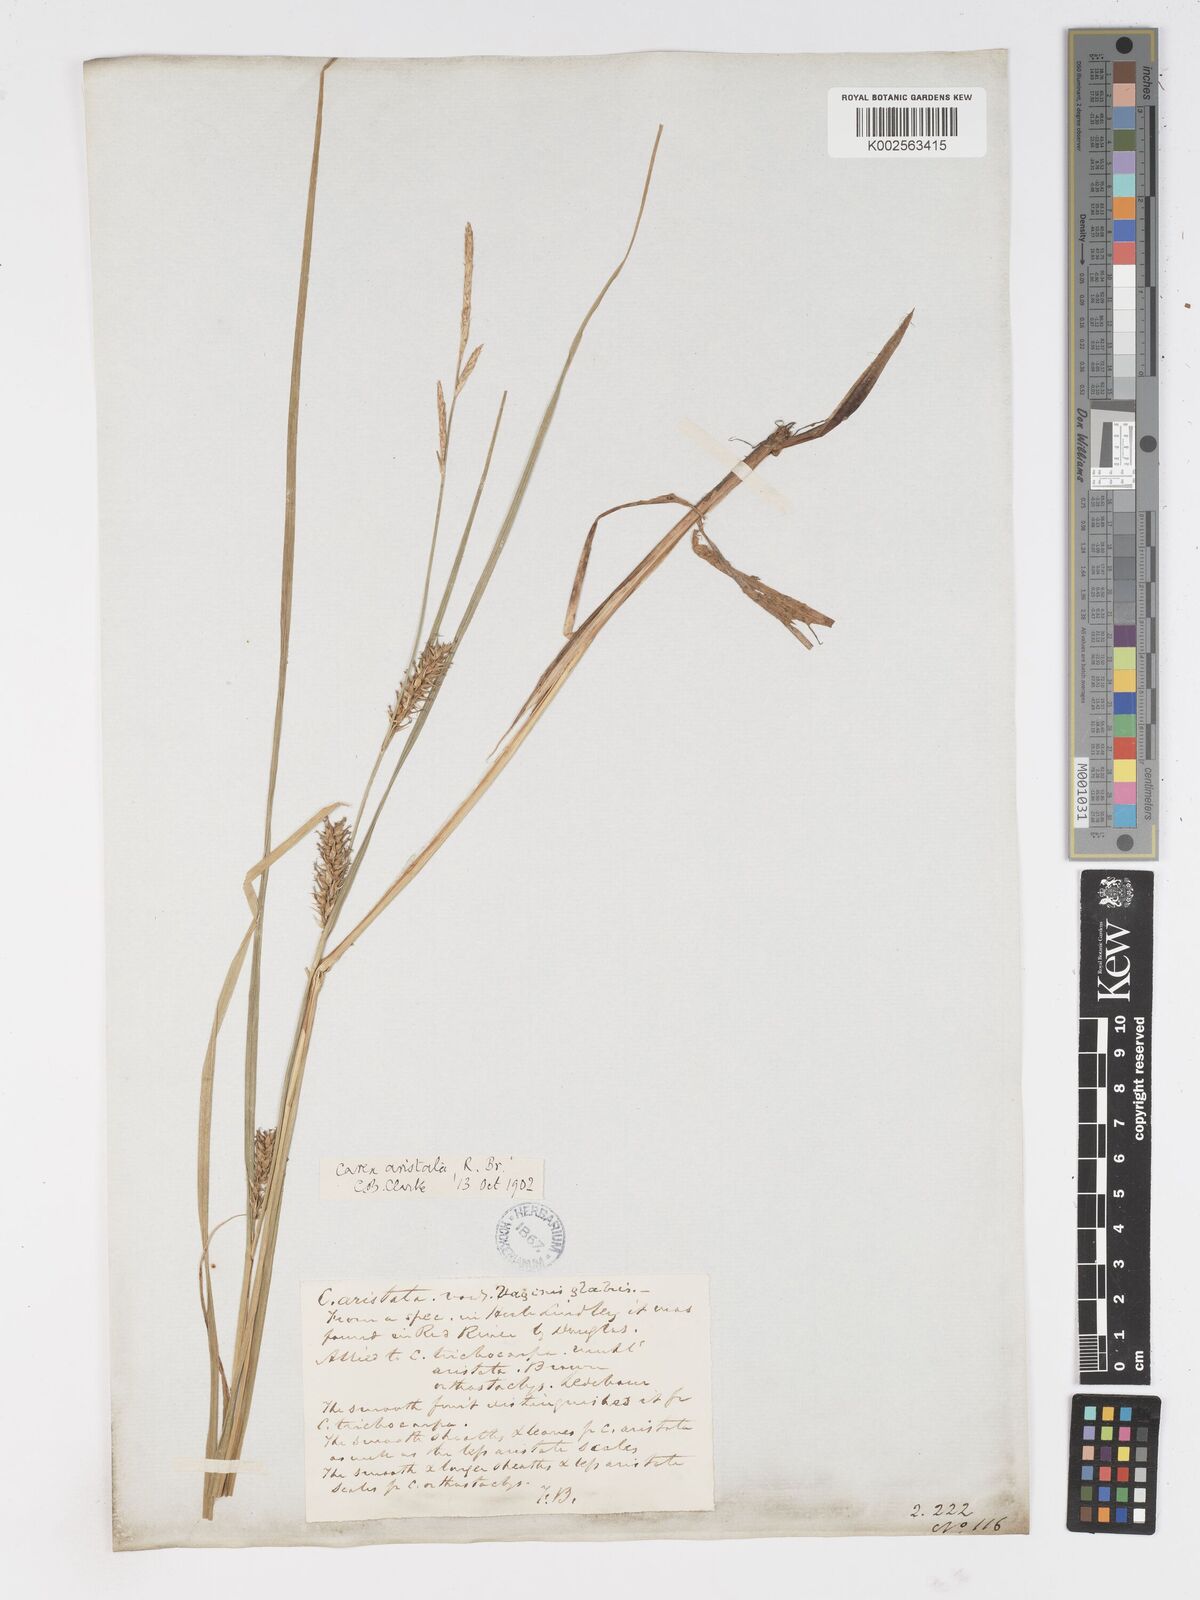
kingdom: Plantae
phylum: Tracheophyta
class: Liliopsida
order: Poales
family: Cyperaceae
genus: Carex
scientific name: Carex atherodes
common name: Wheat sedge
